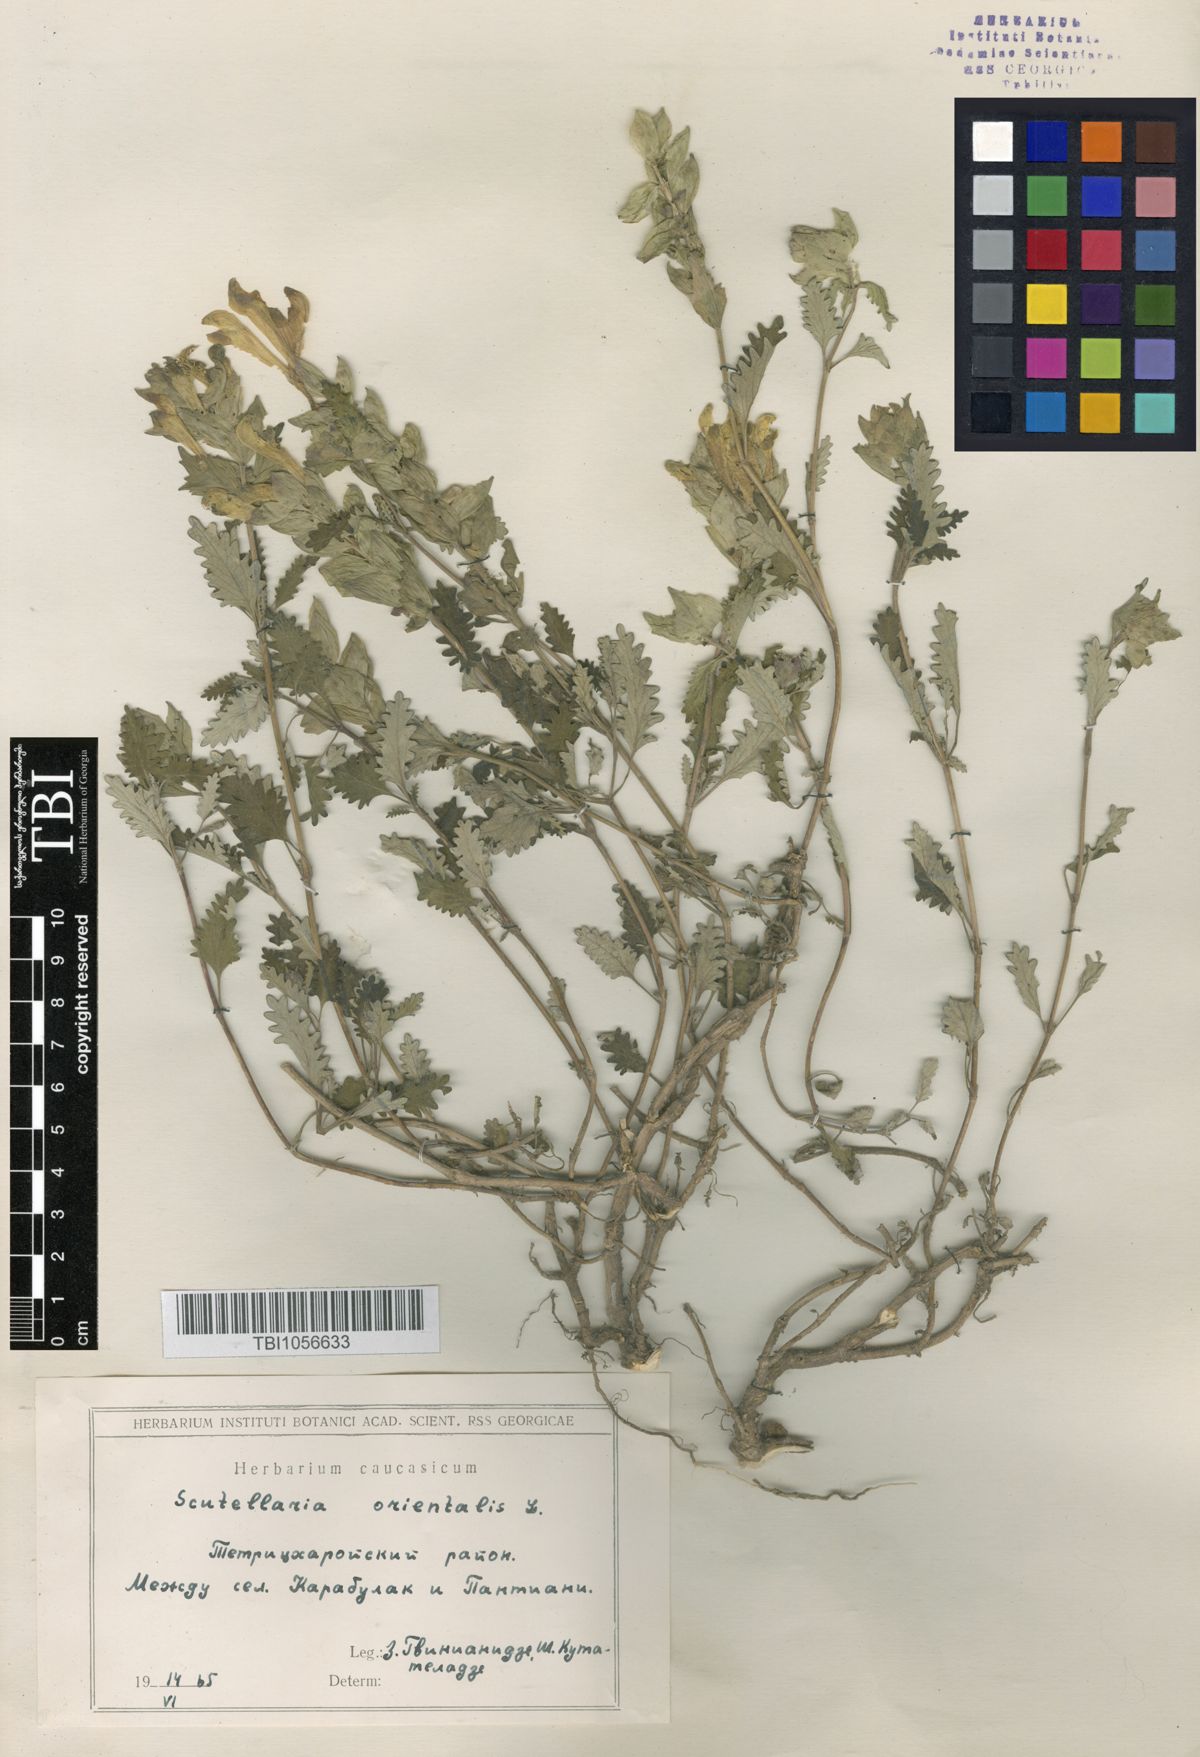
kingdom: Plantae
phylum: Tracheophyta
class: Magnoliopsida
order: Lamiales
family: Lamiaceae
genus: Scutellaria
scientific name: Scutellaria orientalis
